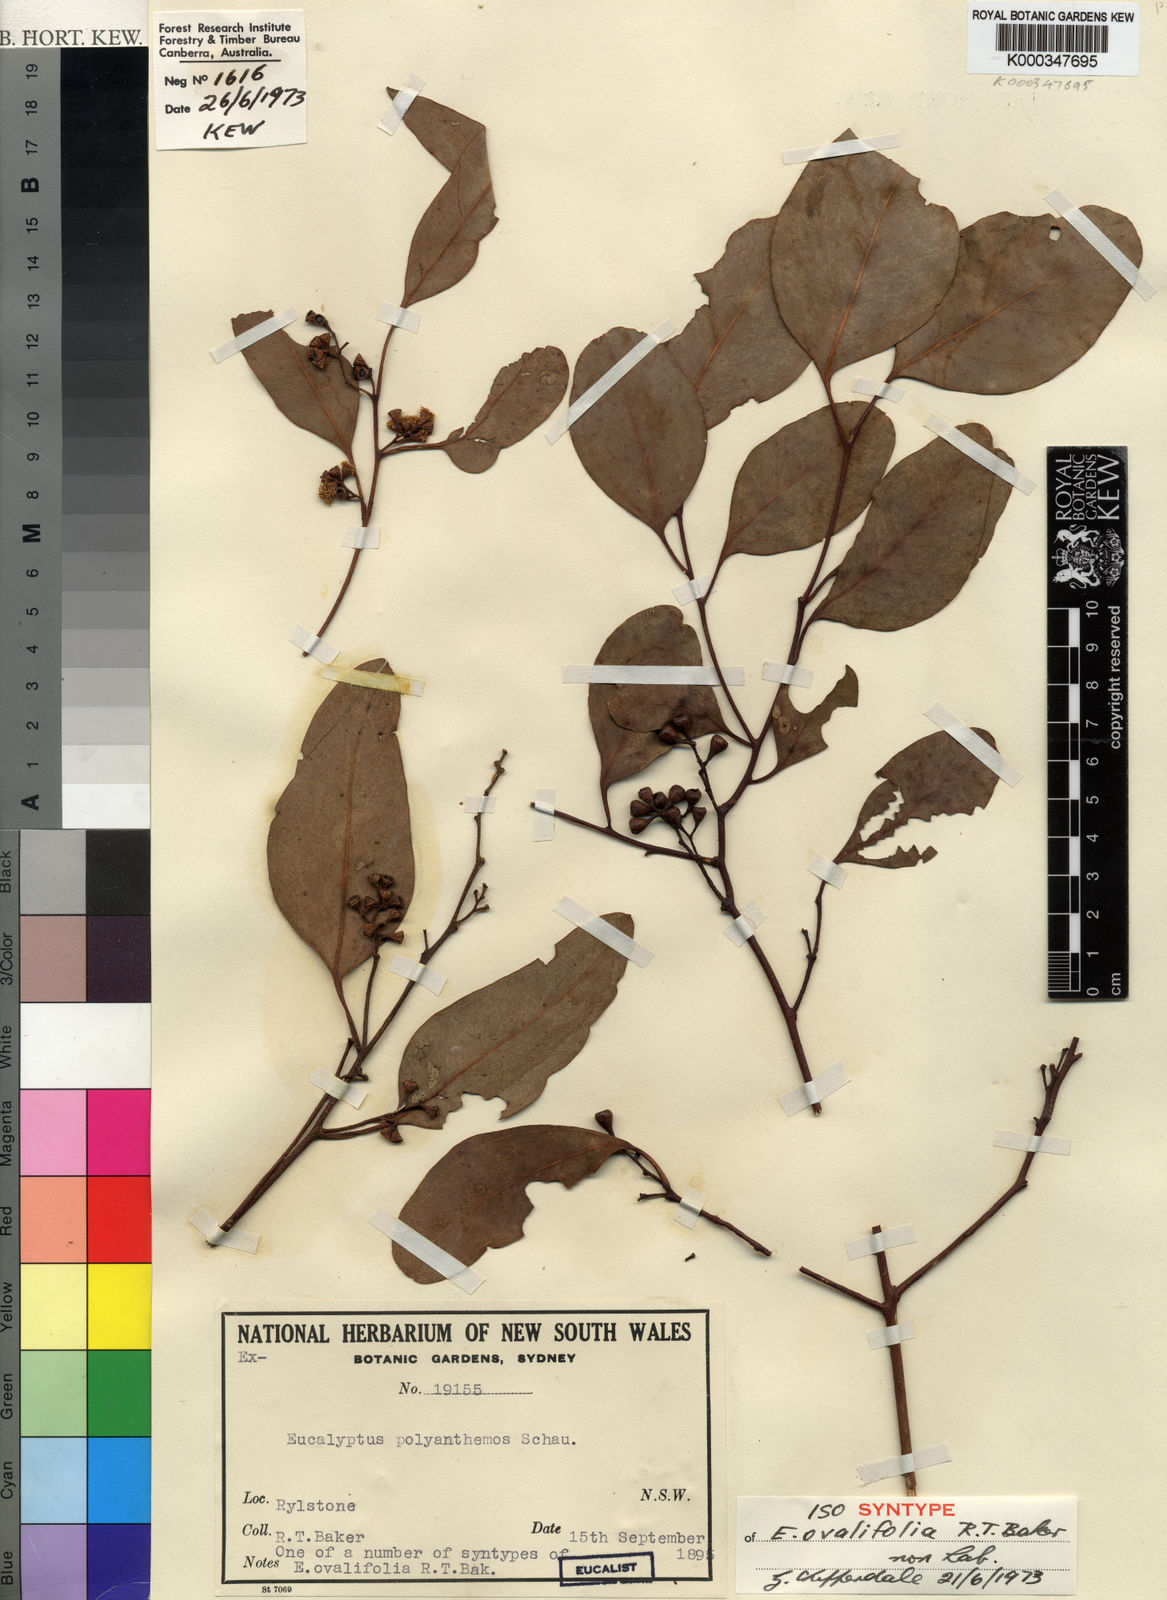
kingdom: Plantae
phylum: Tracheophyta
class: Magnoliopsida
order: Myrtales
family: Myrtaceae
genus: Eucalyptus
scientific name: Eucalyptus polyanthemos
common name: Red-box
